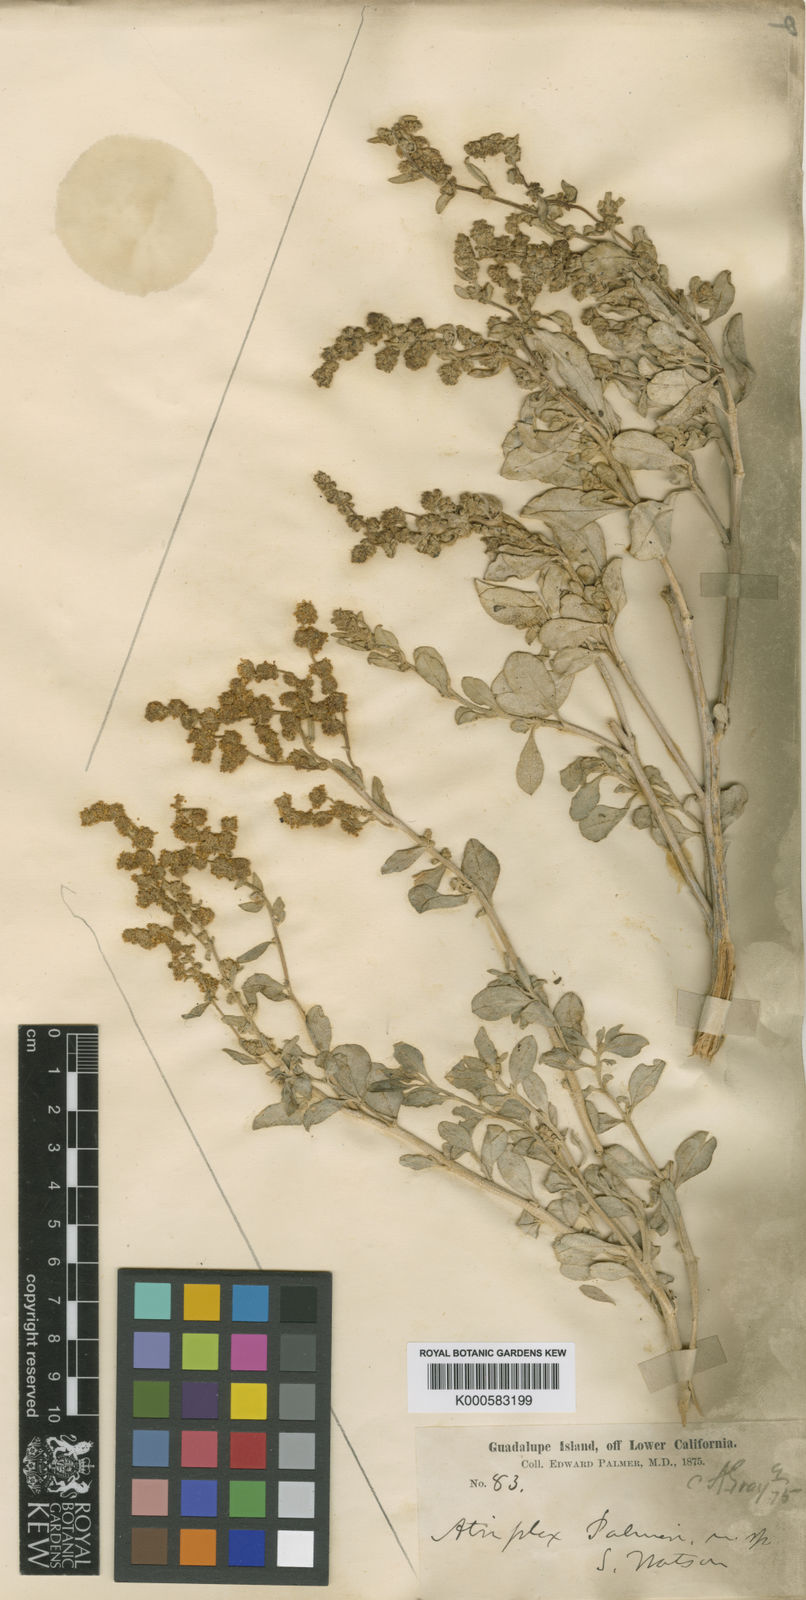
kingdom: Plantae
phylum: Tracheophyta
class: Magnoliopsida
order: Caryophyllales
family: Amaranthaceae
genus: Atriplex
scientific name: Atriplex barclayana
